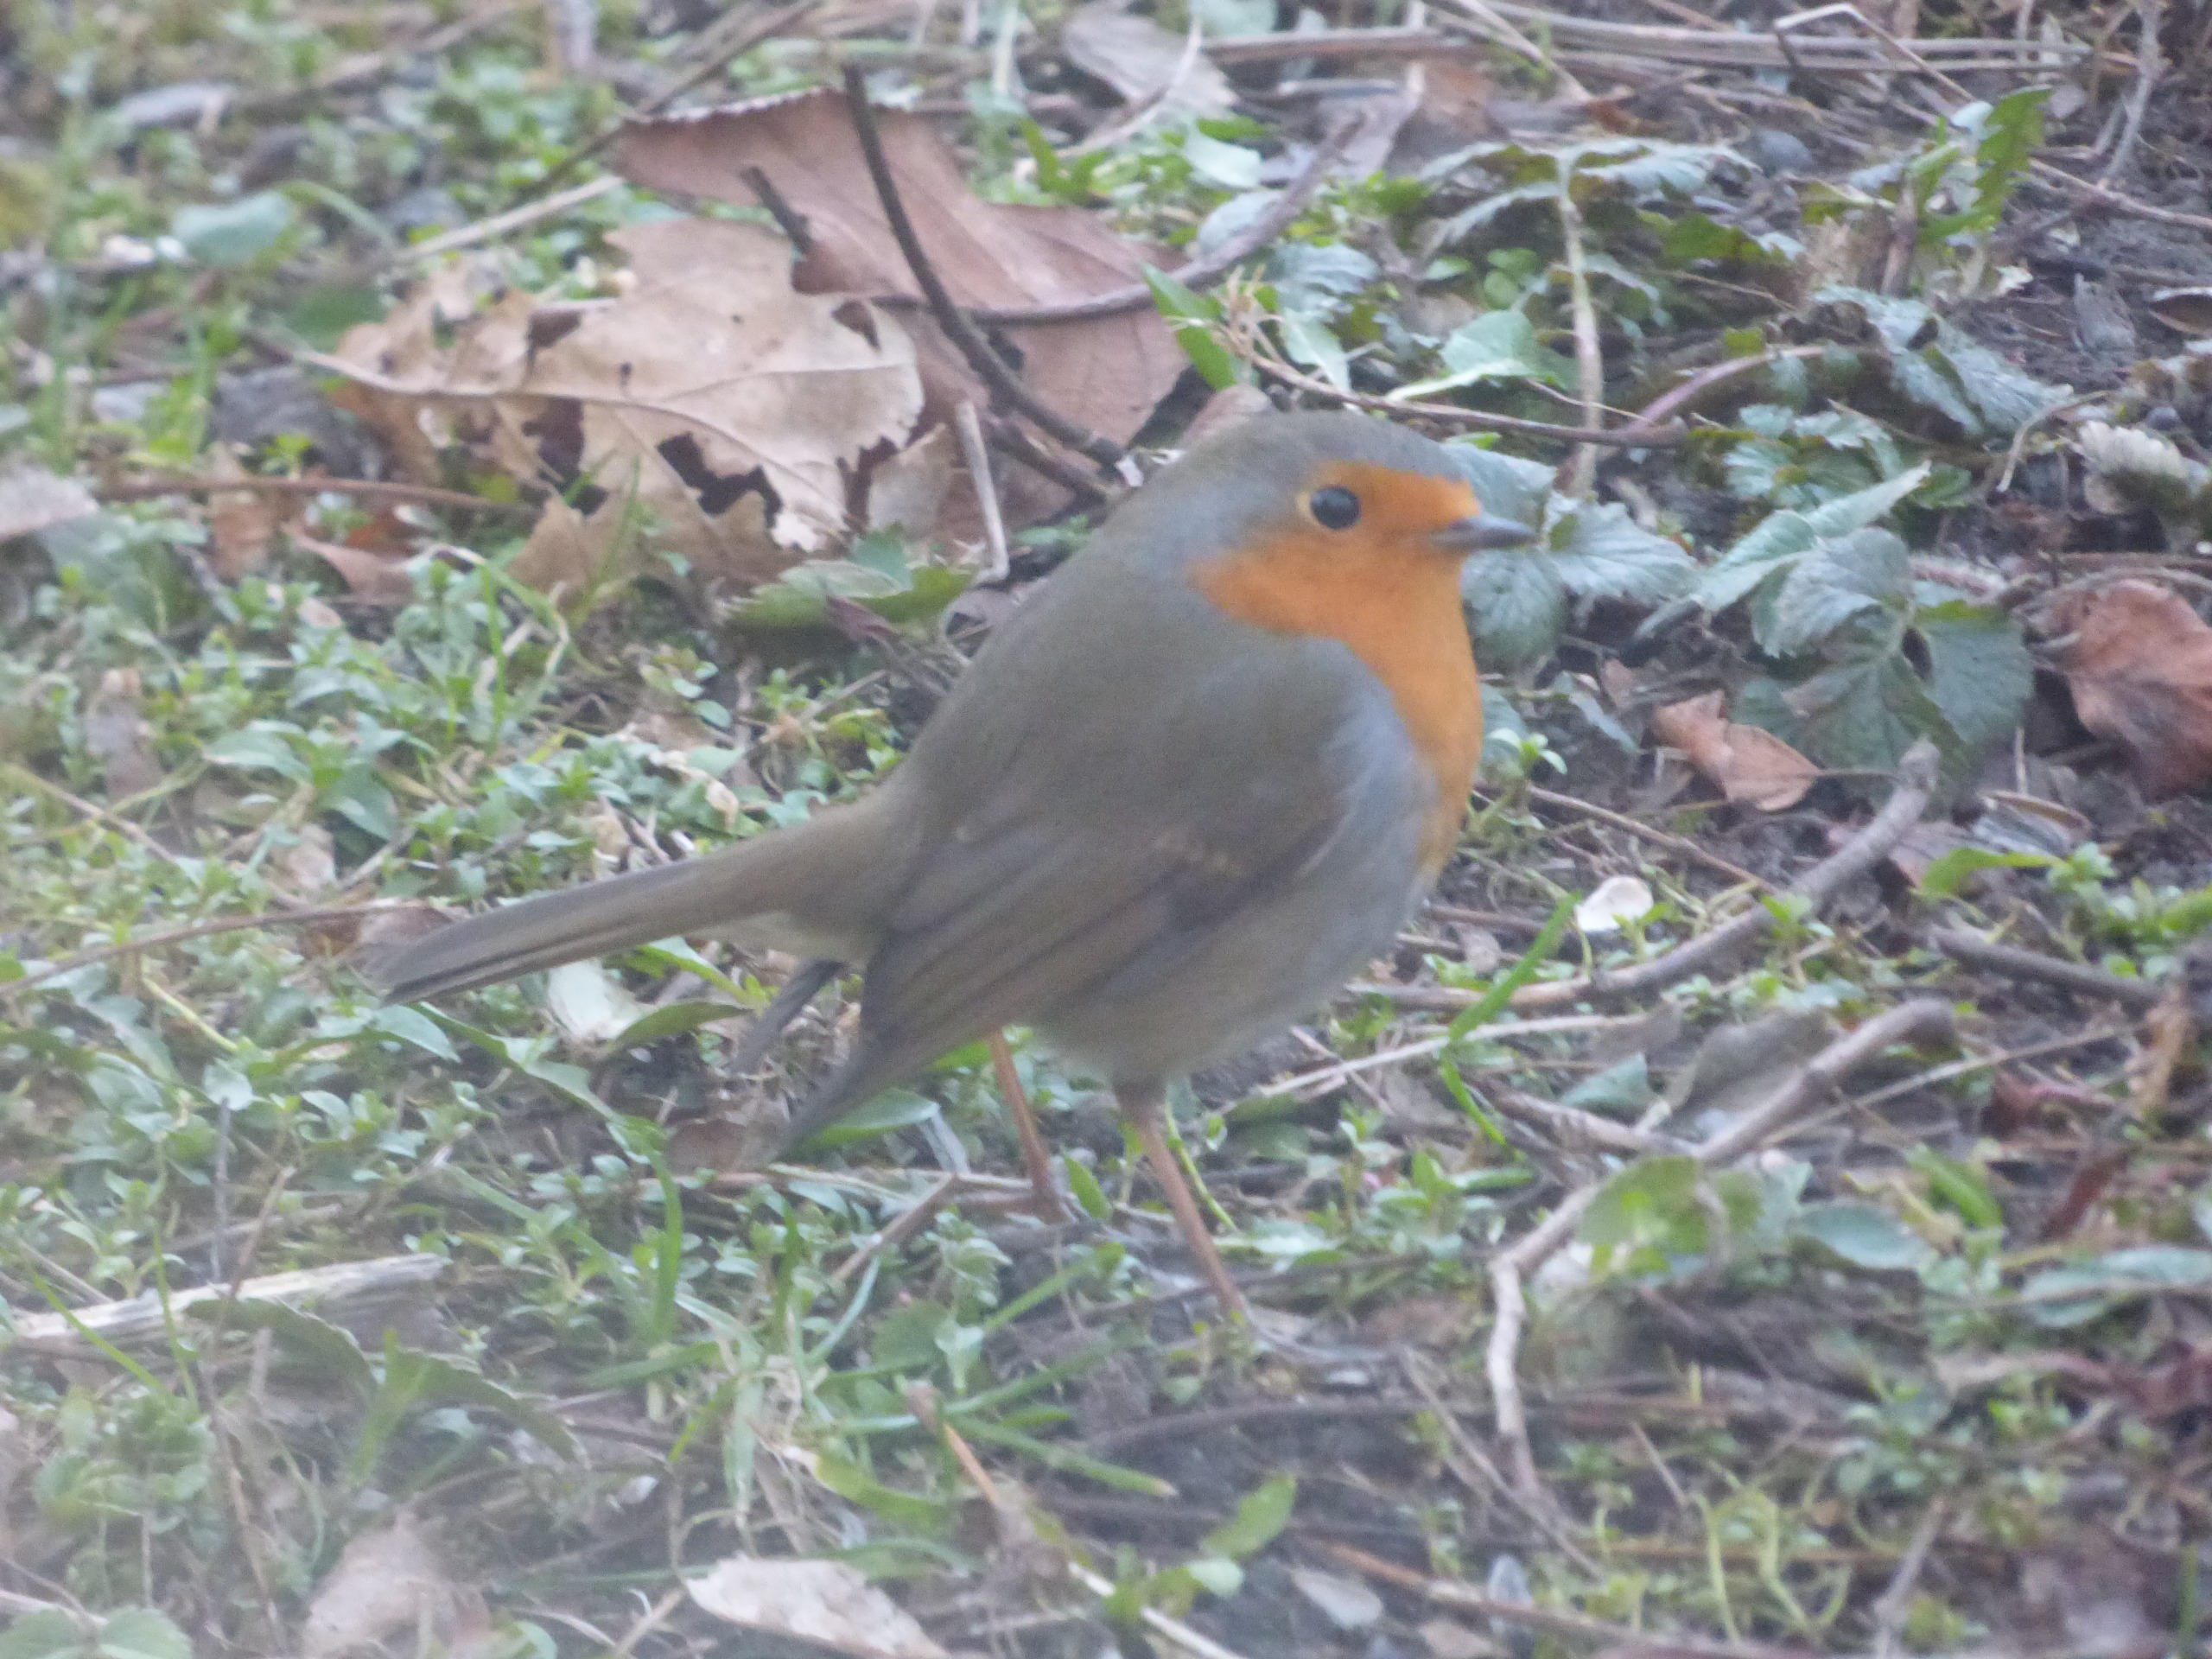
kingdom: Animalia
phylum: Chordata
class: Aves
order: Passeriformes
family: Muscicapidae
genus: Erithacus
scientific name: Erithacus rubecula
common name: Rødhals/rødkælk
